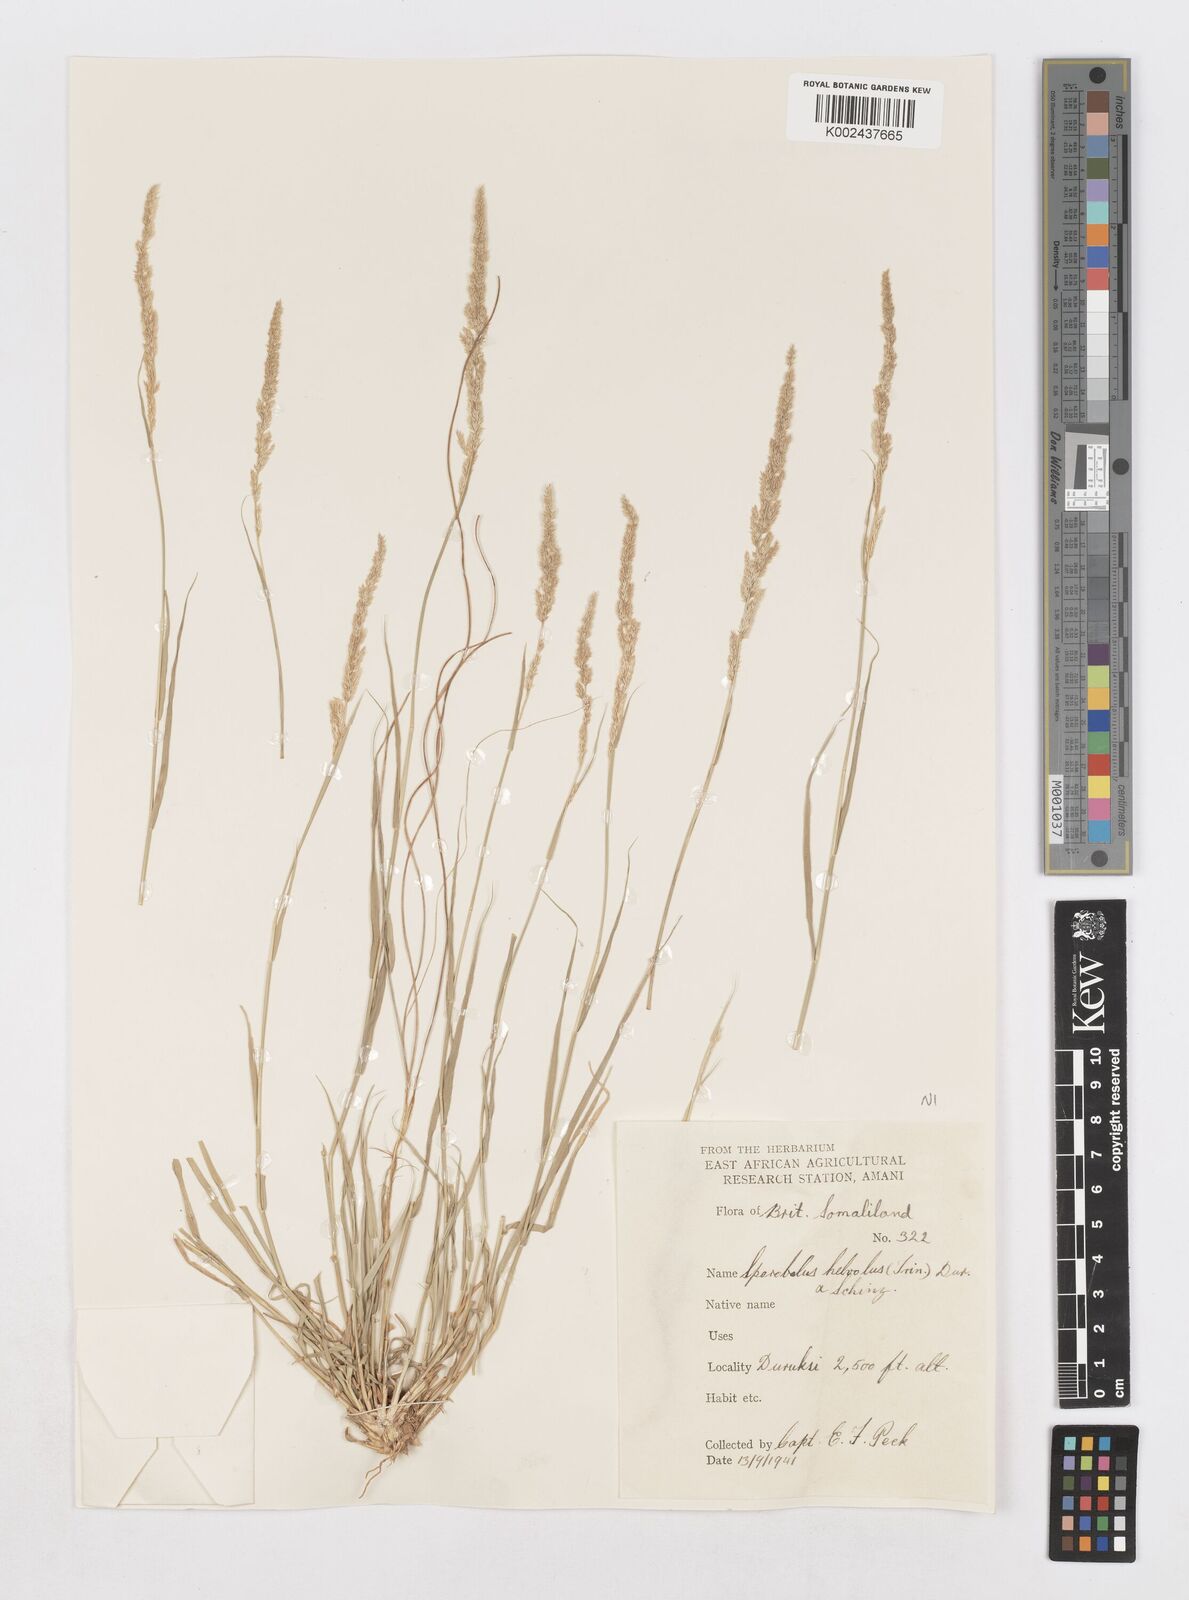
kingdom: Plantae
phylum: Tracheophyta
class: Liliopsida
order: Poales
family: Poaceae
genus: Sporobolus
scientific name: Sporobolus helvolus
